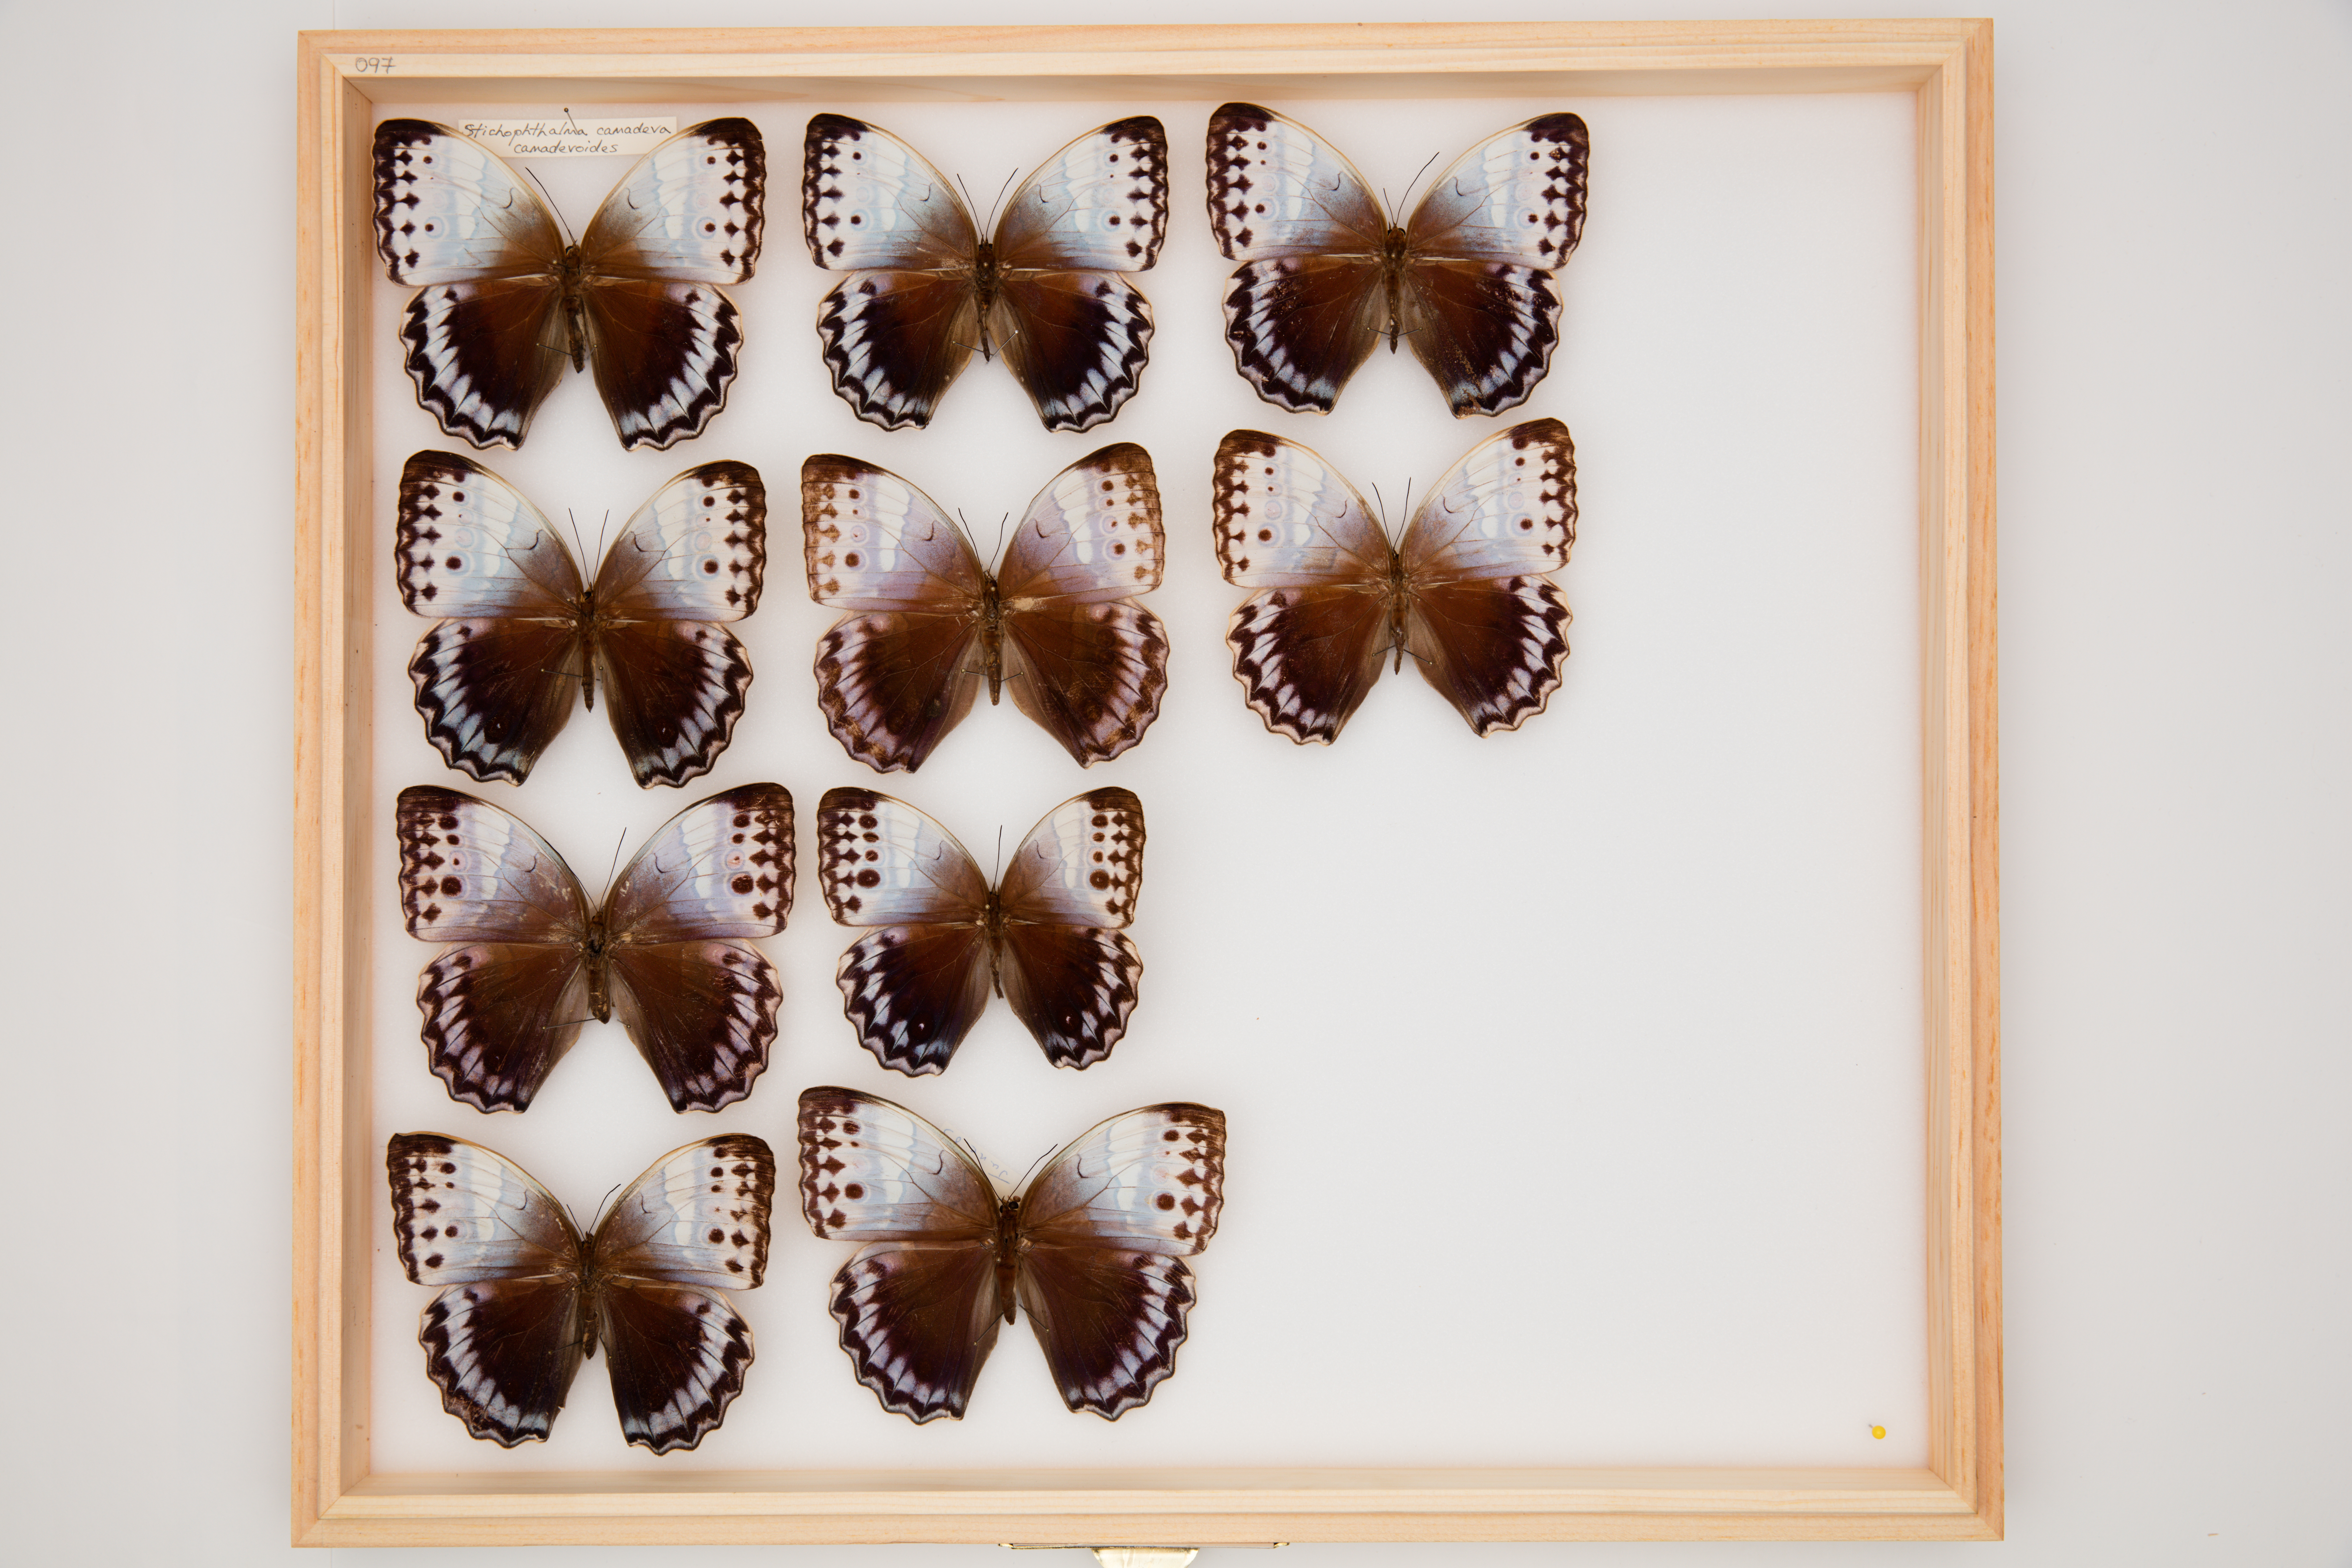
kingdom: Animalia
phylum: Arthropoda
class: Insecta
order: Lepidoptera
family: Nymphalidae
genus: Stichophthalma
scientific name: Stichophthalma camadeva
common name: Northern jungle queen
